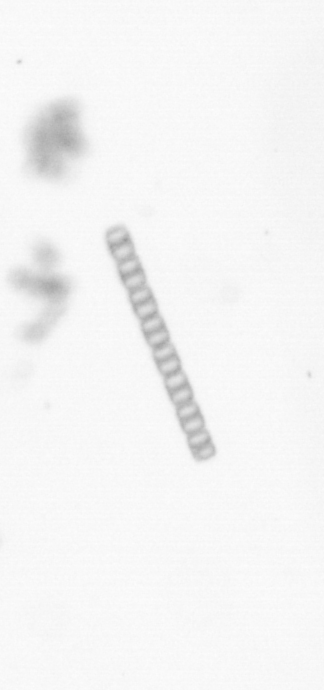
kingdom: Chromista
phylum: Ochrophyta
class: Bacillariophyceae
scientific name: Bacillariophyceae
